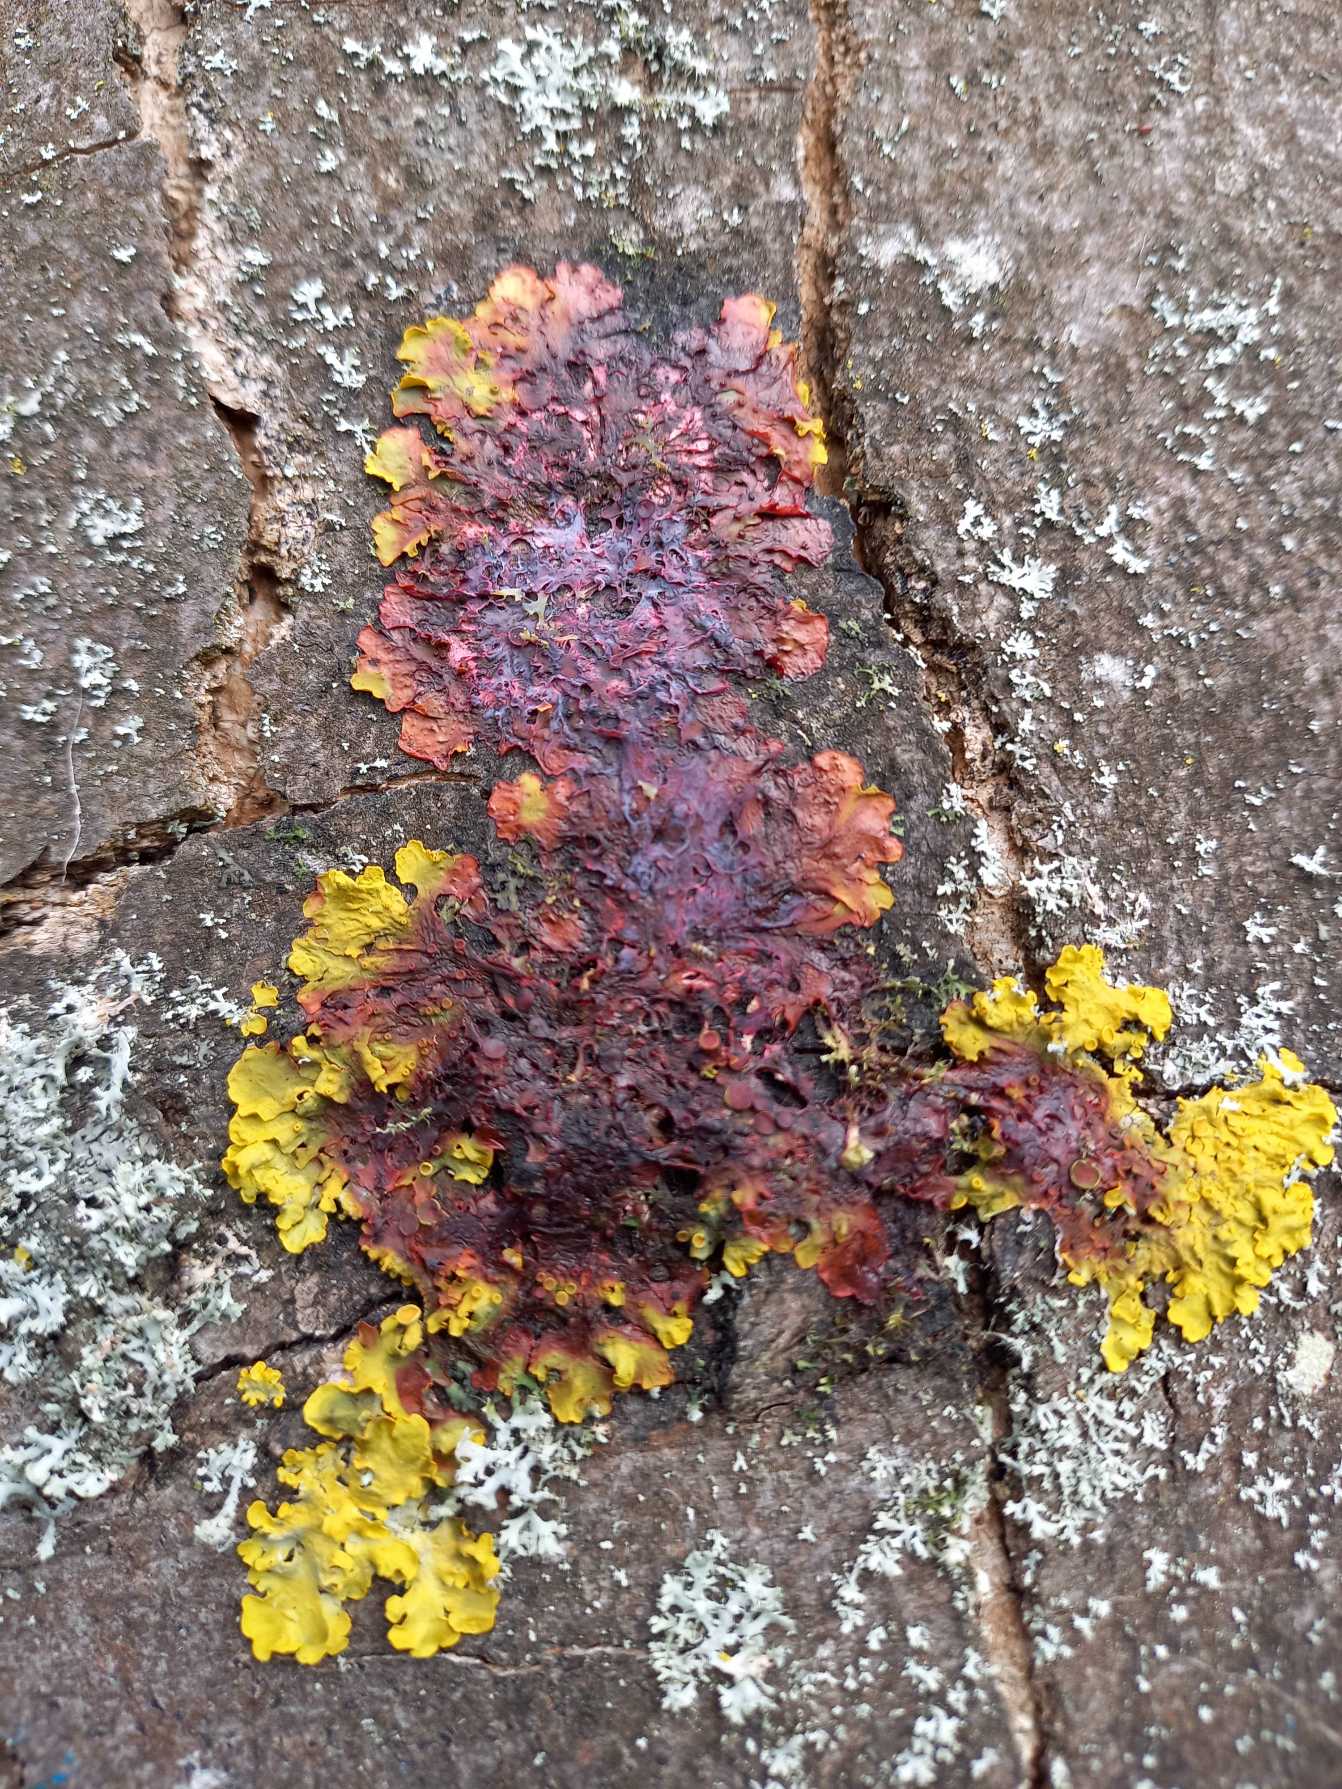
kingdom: Fungi
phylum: Ascomycota
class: Lecanoromycetes
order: Teloschistales
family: Teloschistaceae
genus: Xanthoria
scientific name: Xanthoria parietina
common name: Almindelig væggelav
